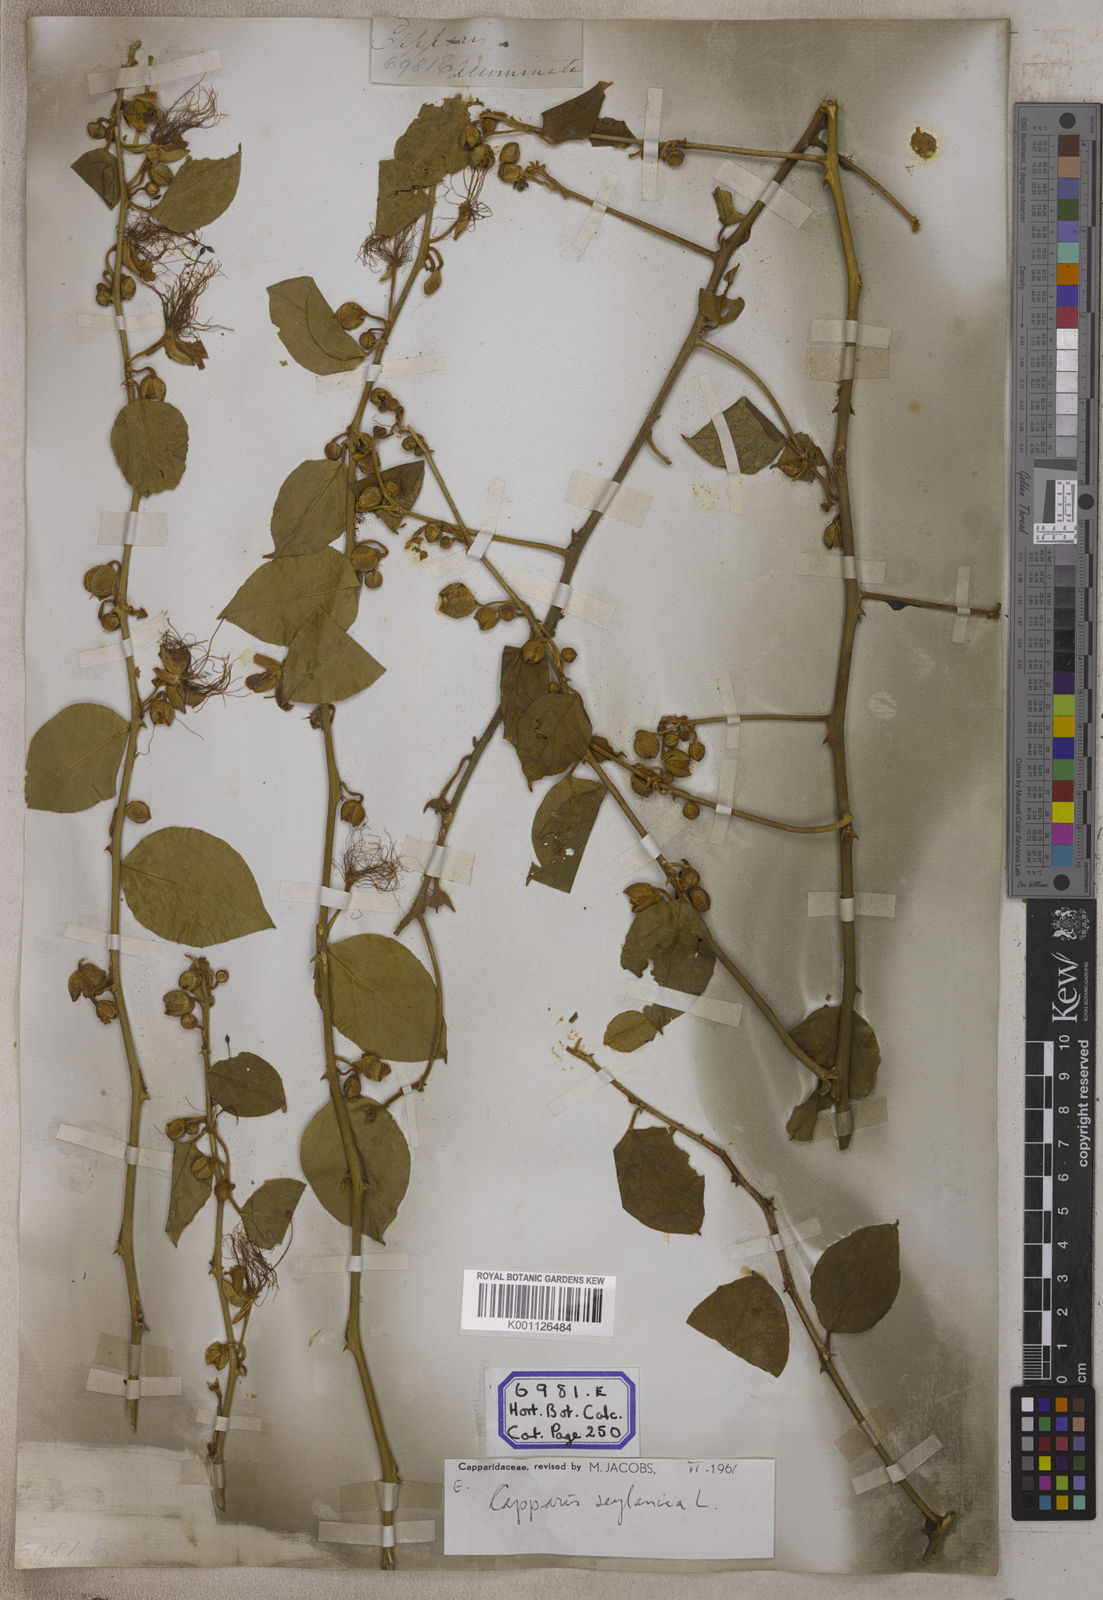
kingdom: Plantae
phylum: Tracheophyta
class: Magnoliopsida
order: Brassicales
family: Capparaceae
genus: Capparis
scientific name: Capparis zeylanica
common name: Ceylon caper
